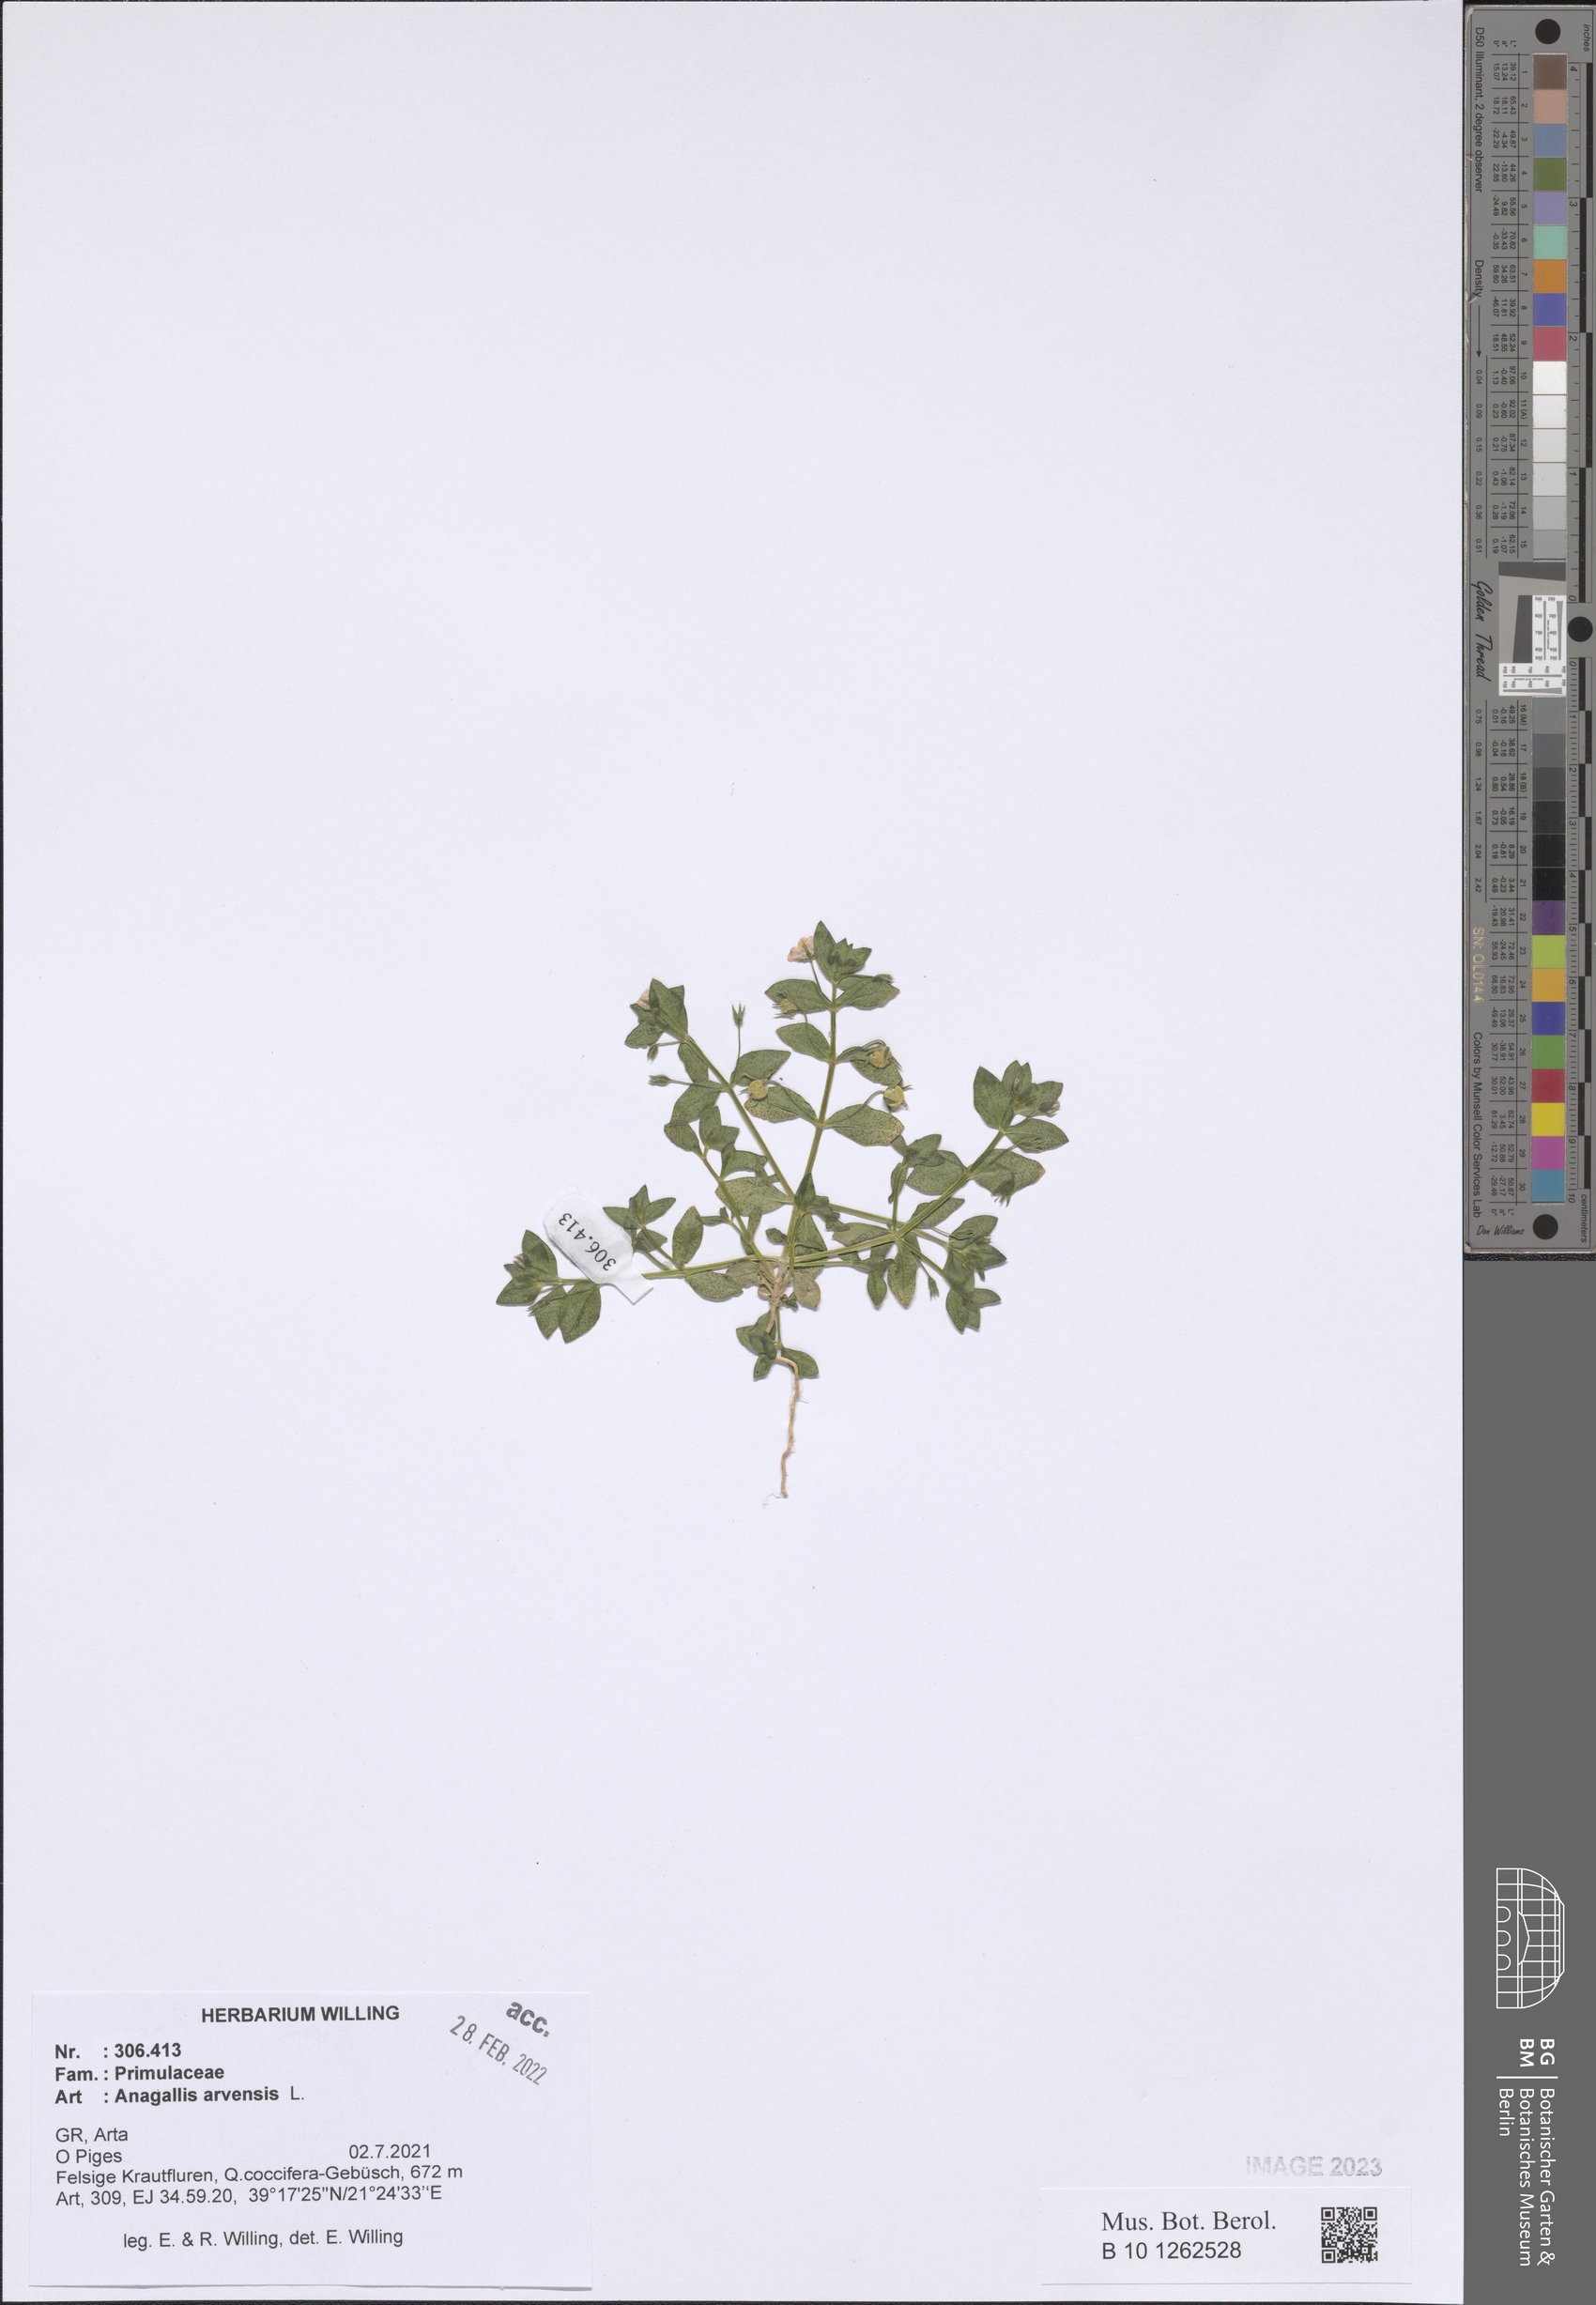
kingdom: Plantae
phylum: Tracheophyta
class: Magnoliopsida
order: Ericales
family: Primulaceae
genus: Lysimachia
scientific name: Lysimachia arvensis
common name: Scarlet pimpernel
